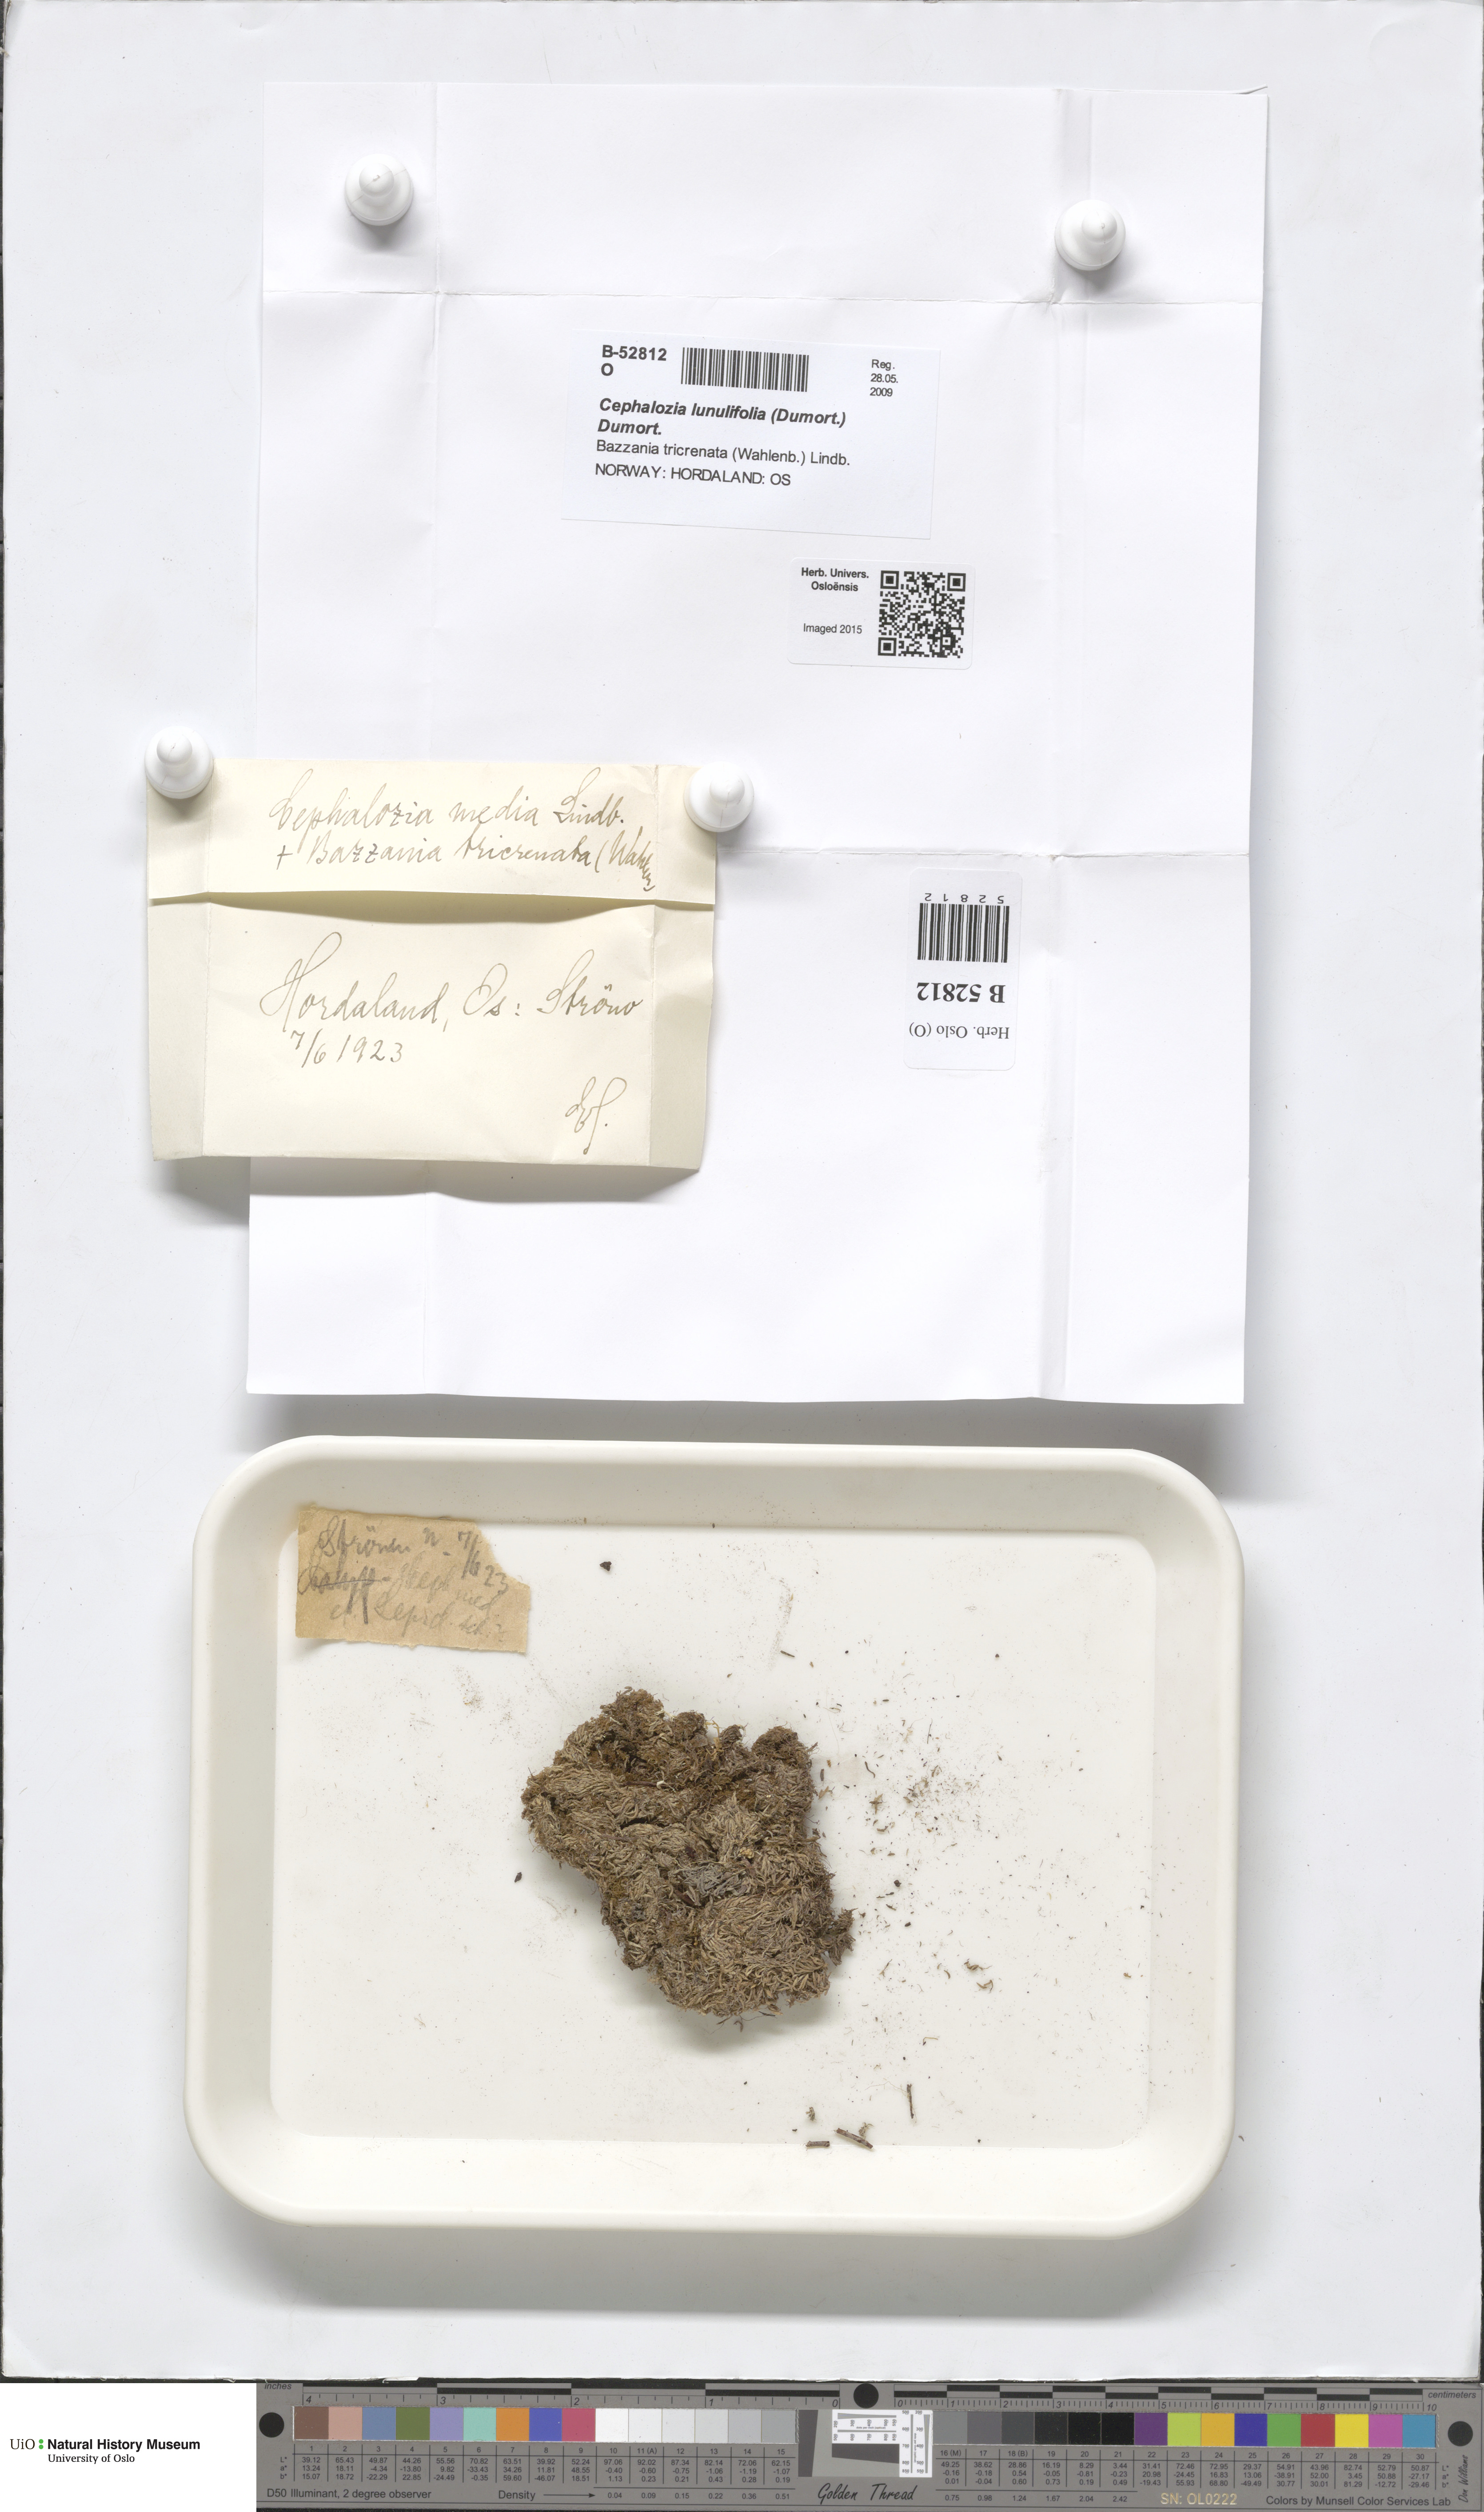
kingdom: Plantae
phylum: Marchantiophyta
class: Jungermanniopsida
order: Jungermanniales
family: Cephaloziaceae
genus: Fuscocephaloziopsis
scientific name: Fuscocephaloziopsis lunulifolia
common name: Moon-leaved pincerwort
